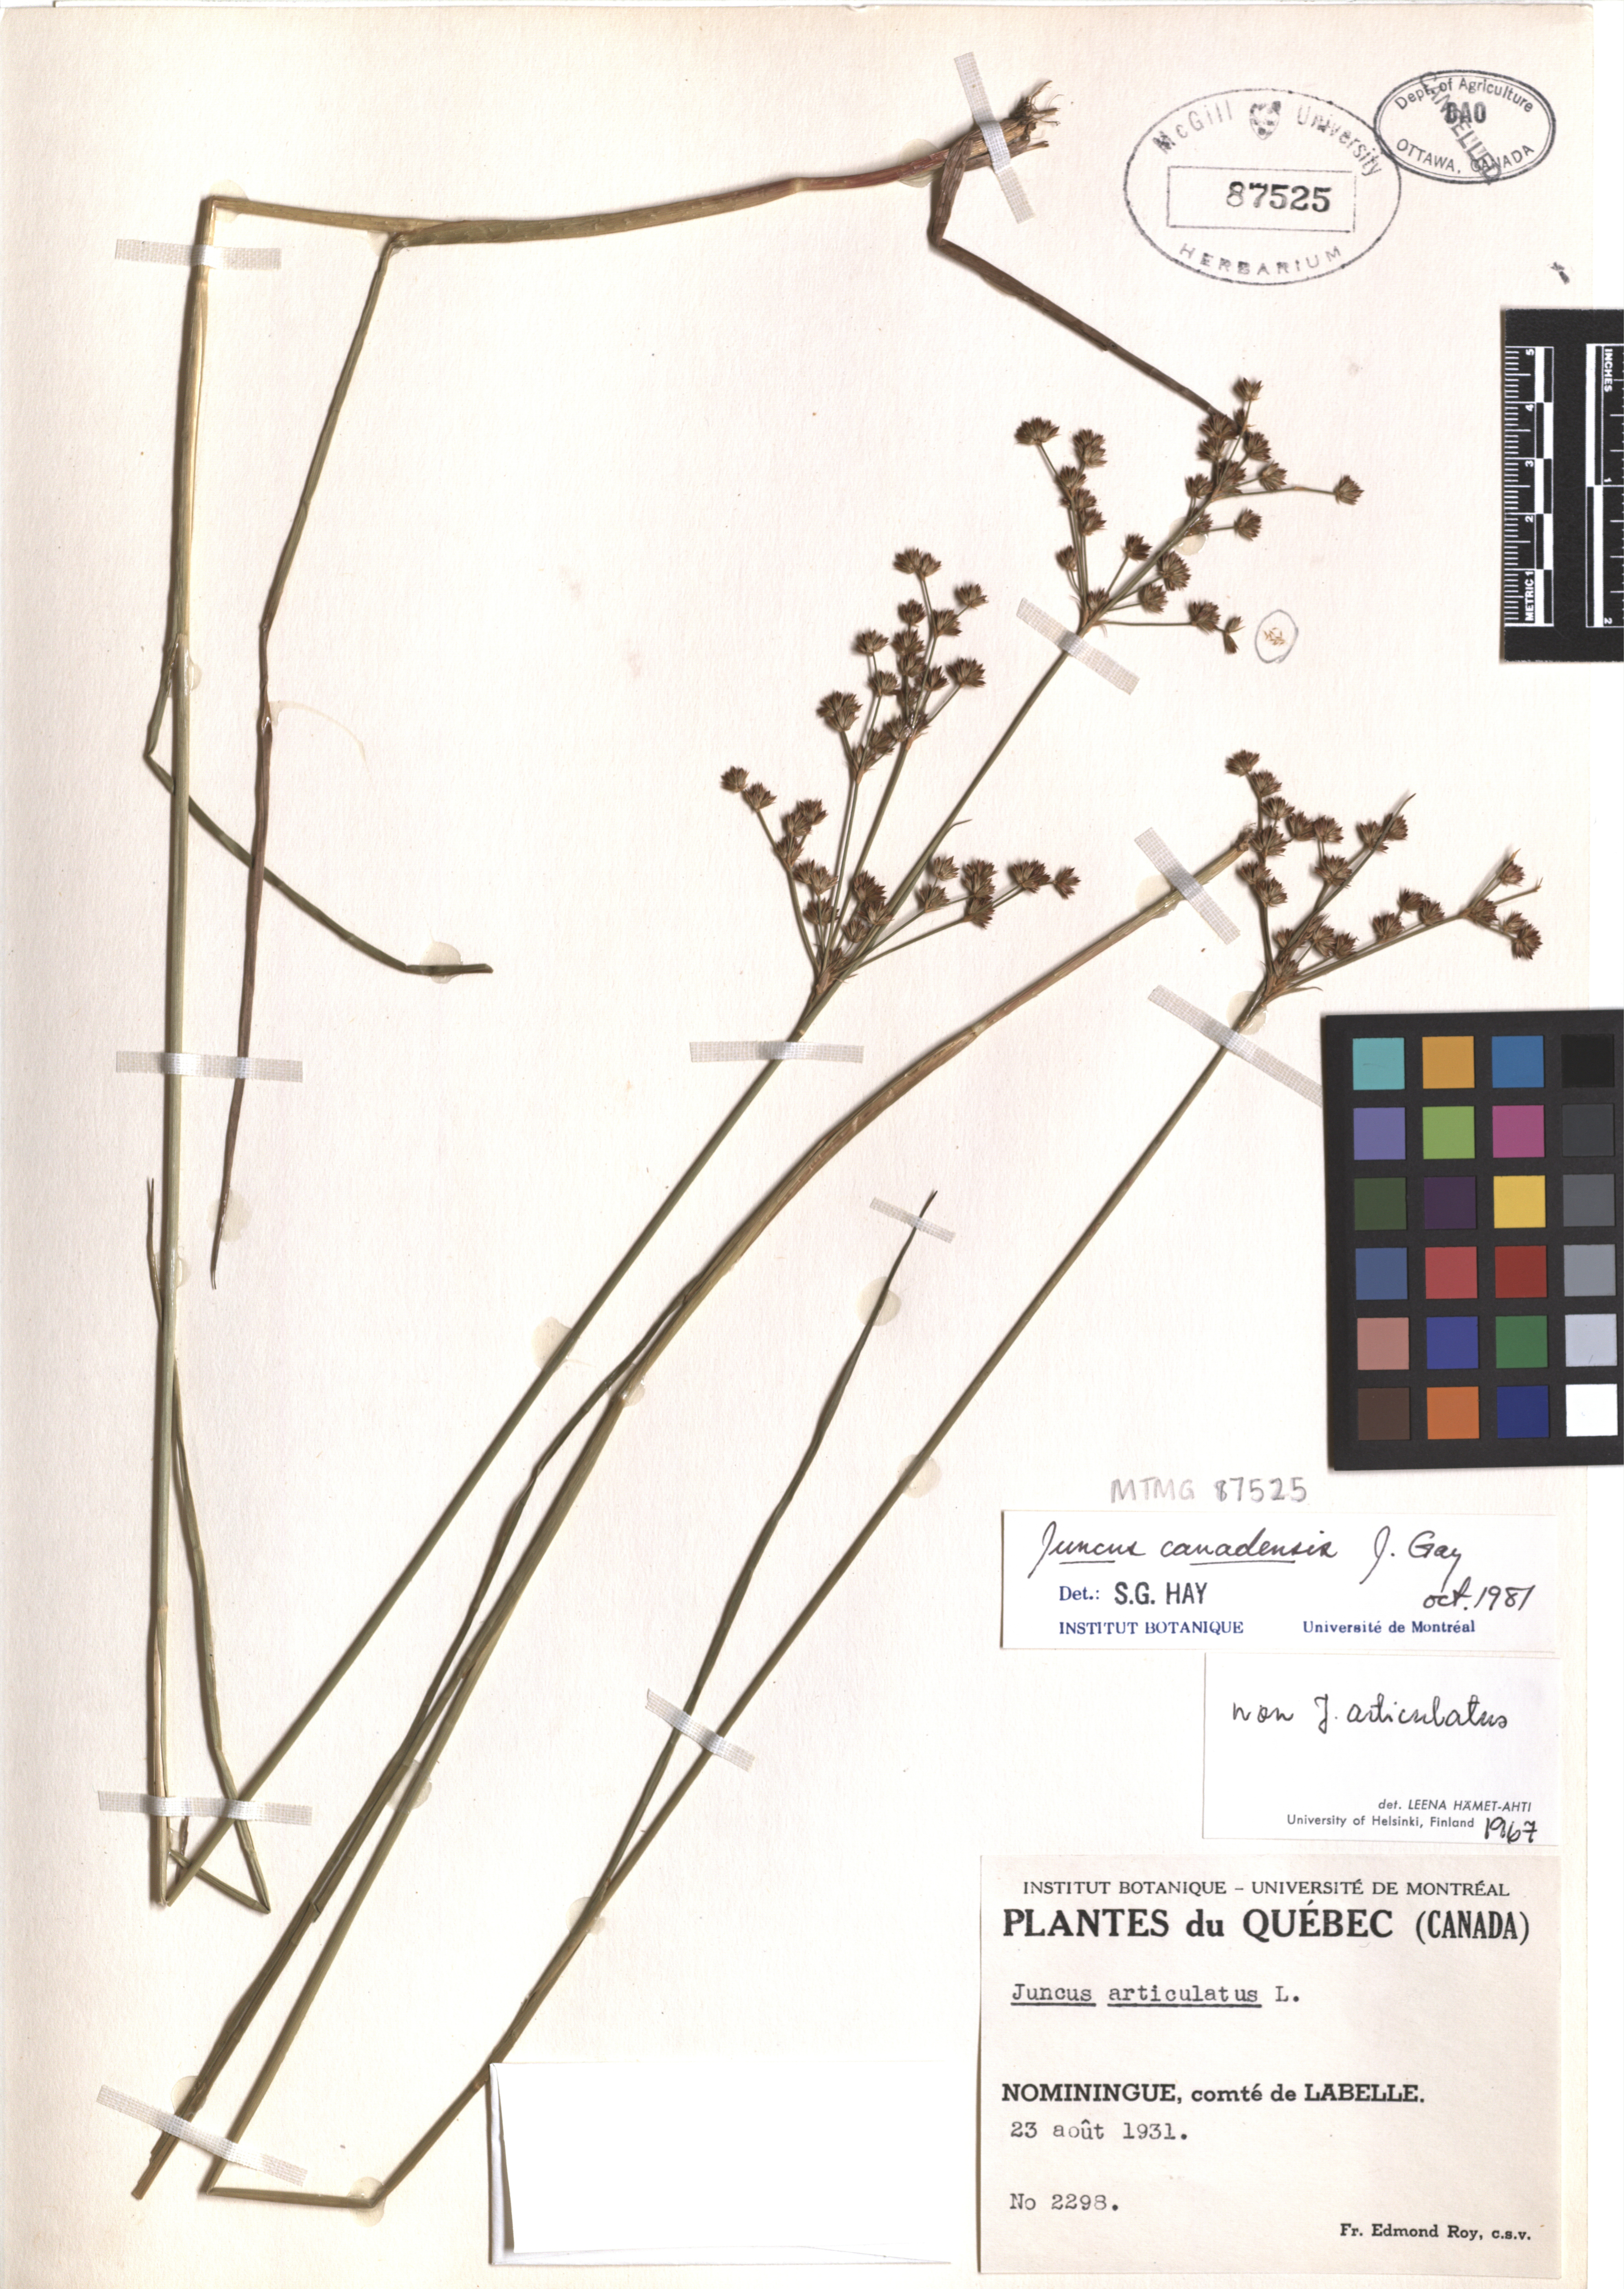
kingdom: Plantae
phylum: Tracheophyta
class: Liliopsida
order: Poales
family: Juncaceae
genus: Juncus
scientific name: Juncus canadensis
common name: Canada rush
